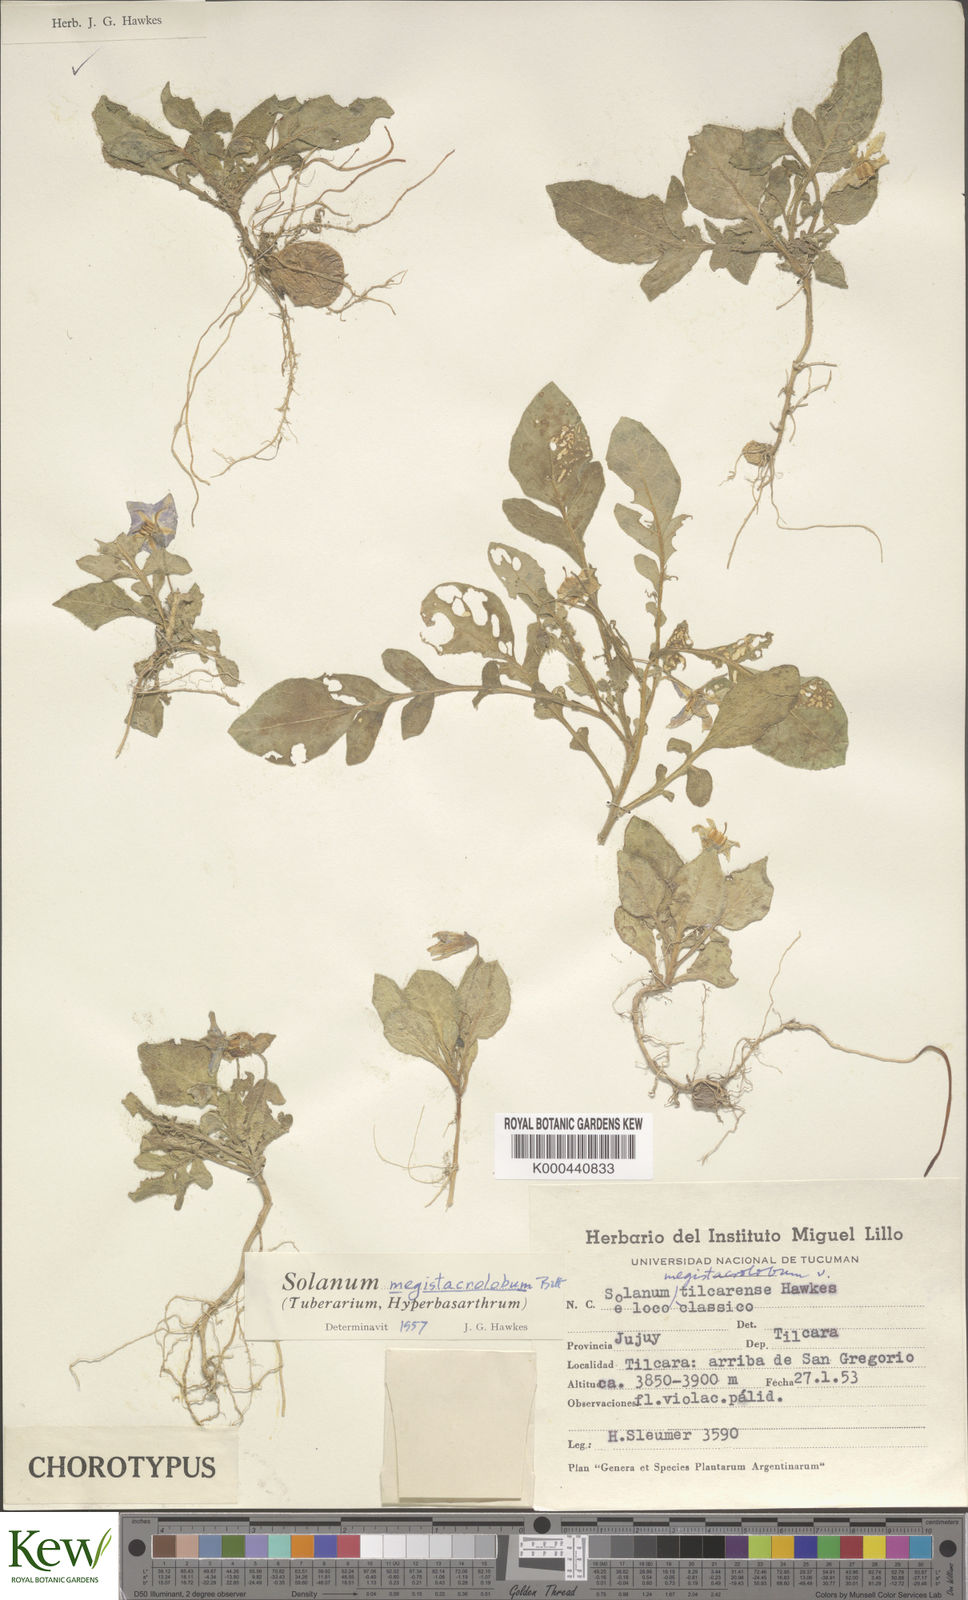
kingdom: Plantae
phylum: Tracheophyta
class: Magnoliopsida
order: Solanales
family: Solanaceae
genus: Solanum
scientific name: Solanum boliviense
